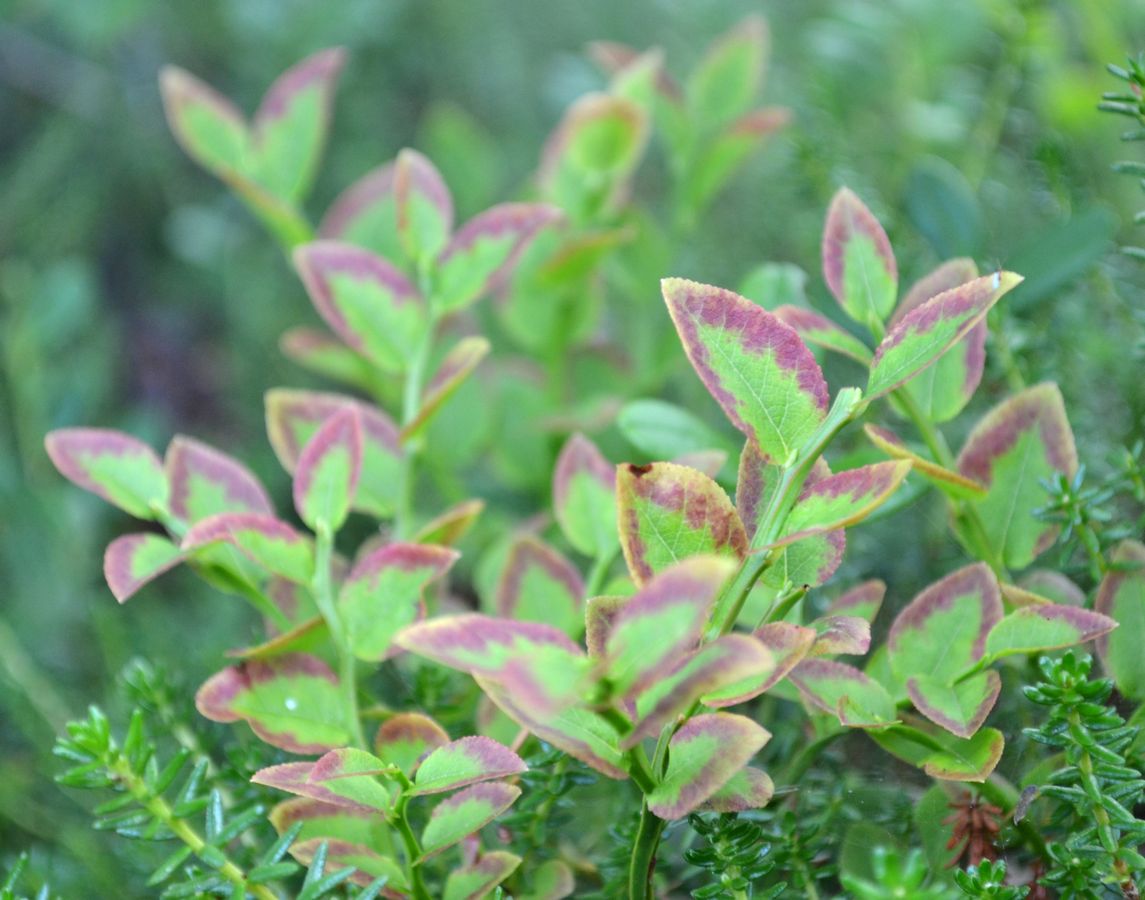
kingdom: Plantae
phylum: Tracheophyta
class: Magnoliopsida
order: Ericales
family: Ericaceae
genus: Vaccinium
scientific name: Vaccinium myrtillus
